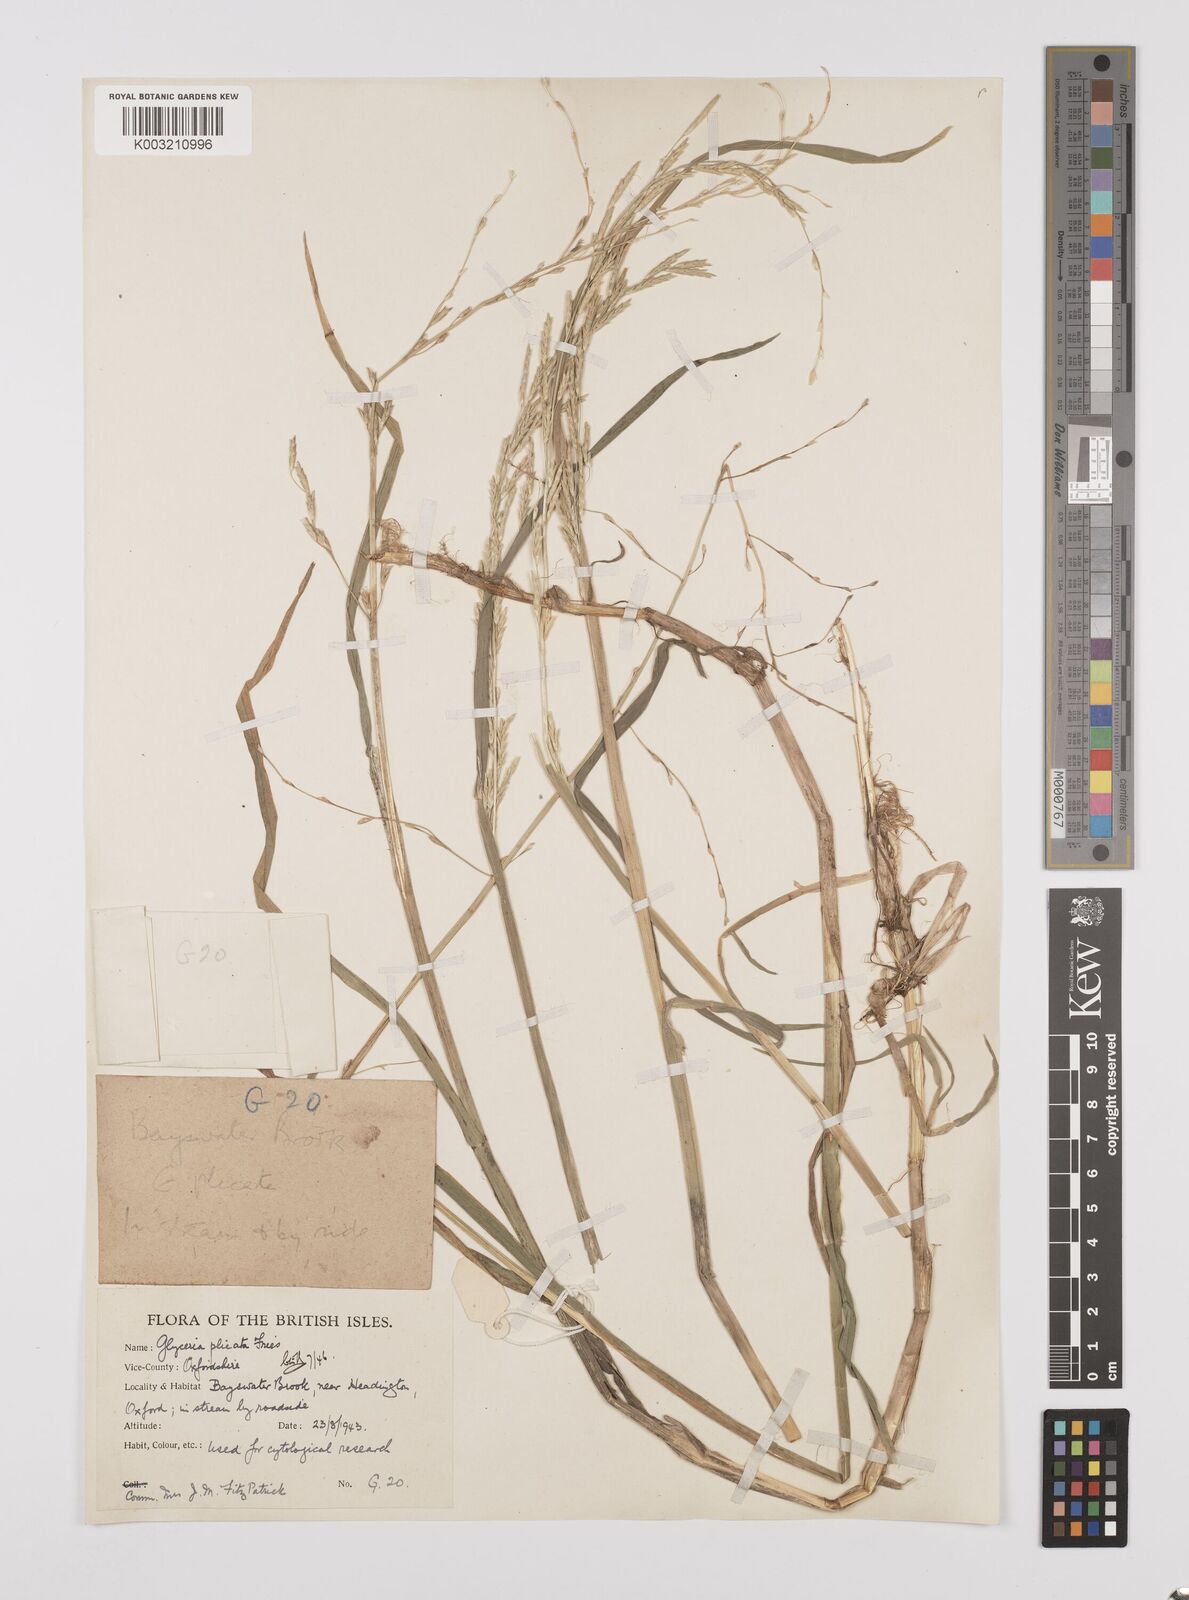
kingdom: Plantae
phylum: Tracheophyta
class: Liliopsida
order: Poales
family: Poaceae
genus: Glyceria
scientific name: Glyceria notata
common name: Plicate sweet-grass
